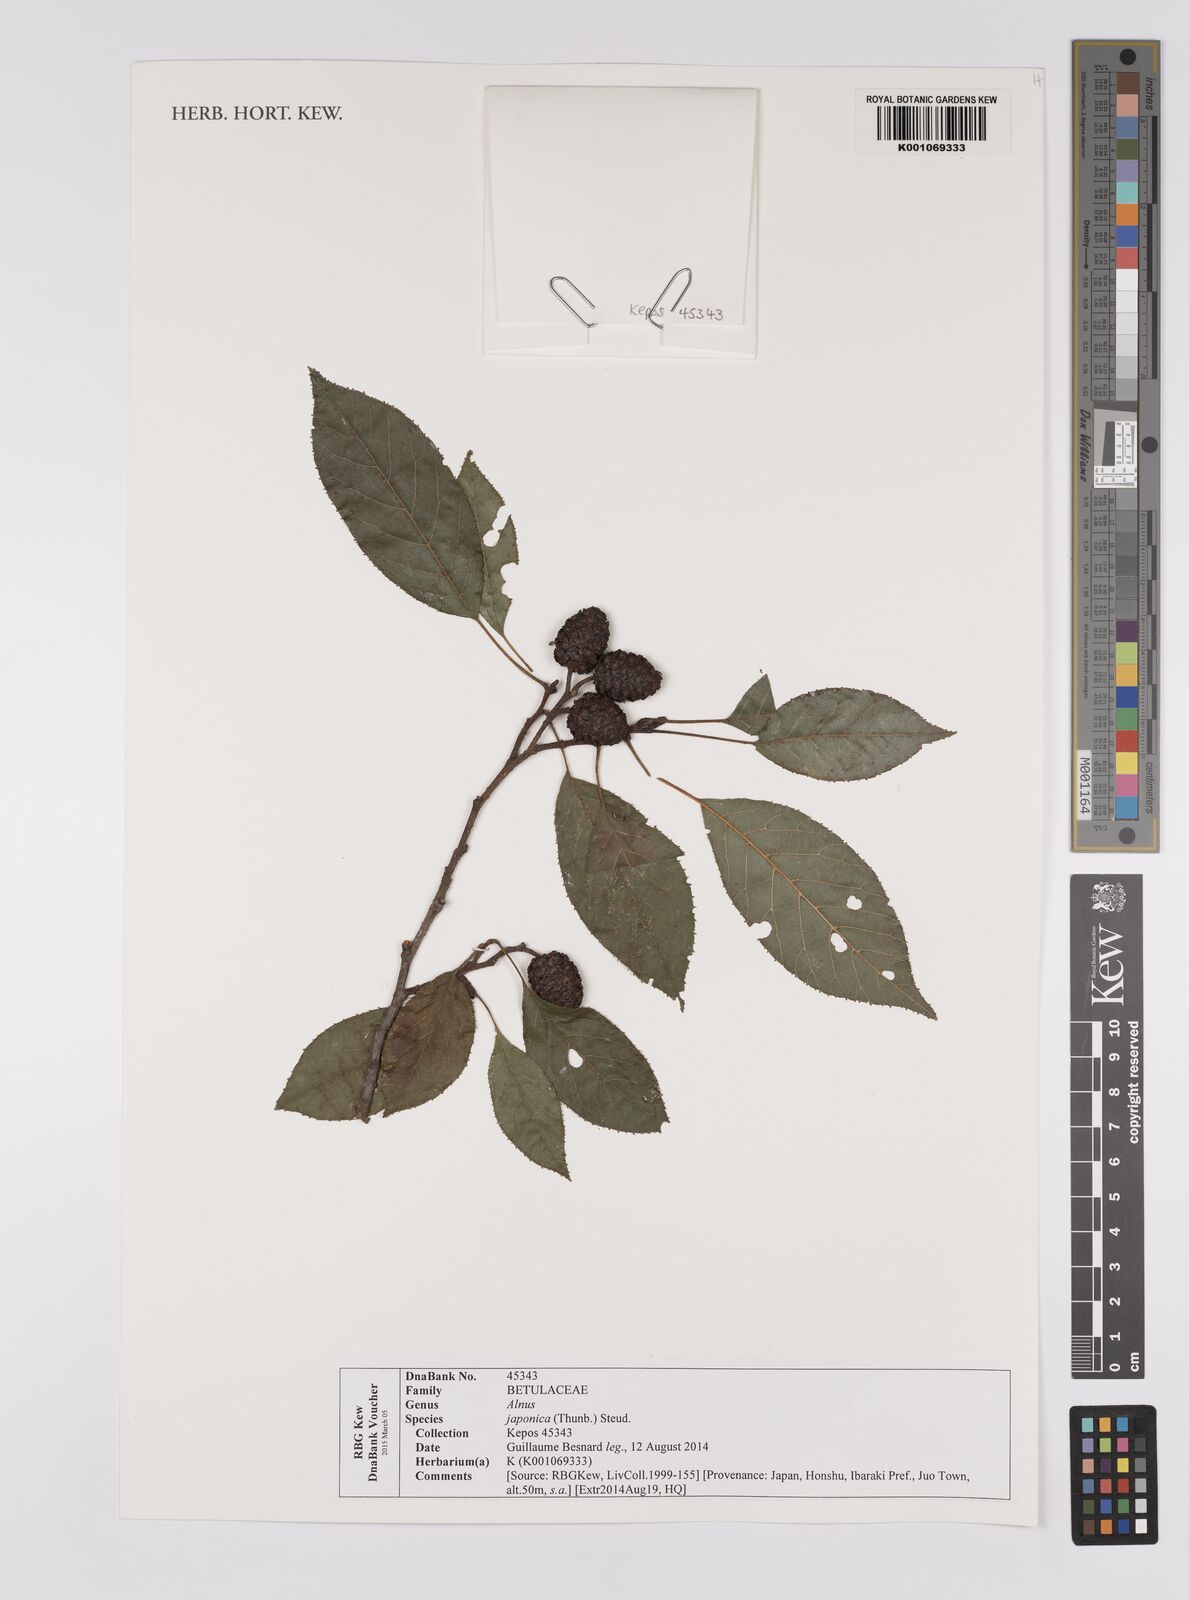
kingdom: Plantae
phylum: Tracheophyta
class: Magnoliopsida
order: Fagales
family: Betulaceae
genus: Alnus
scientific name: Alnus japonica
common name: Japanese alder
